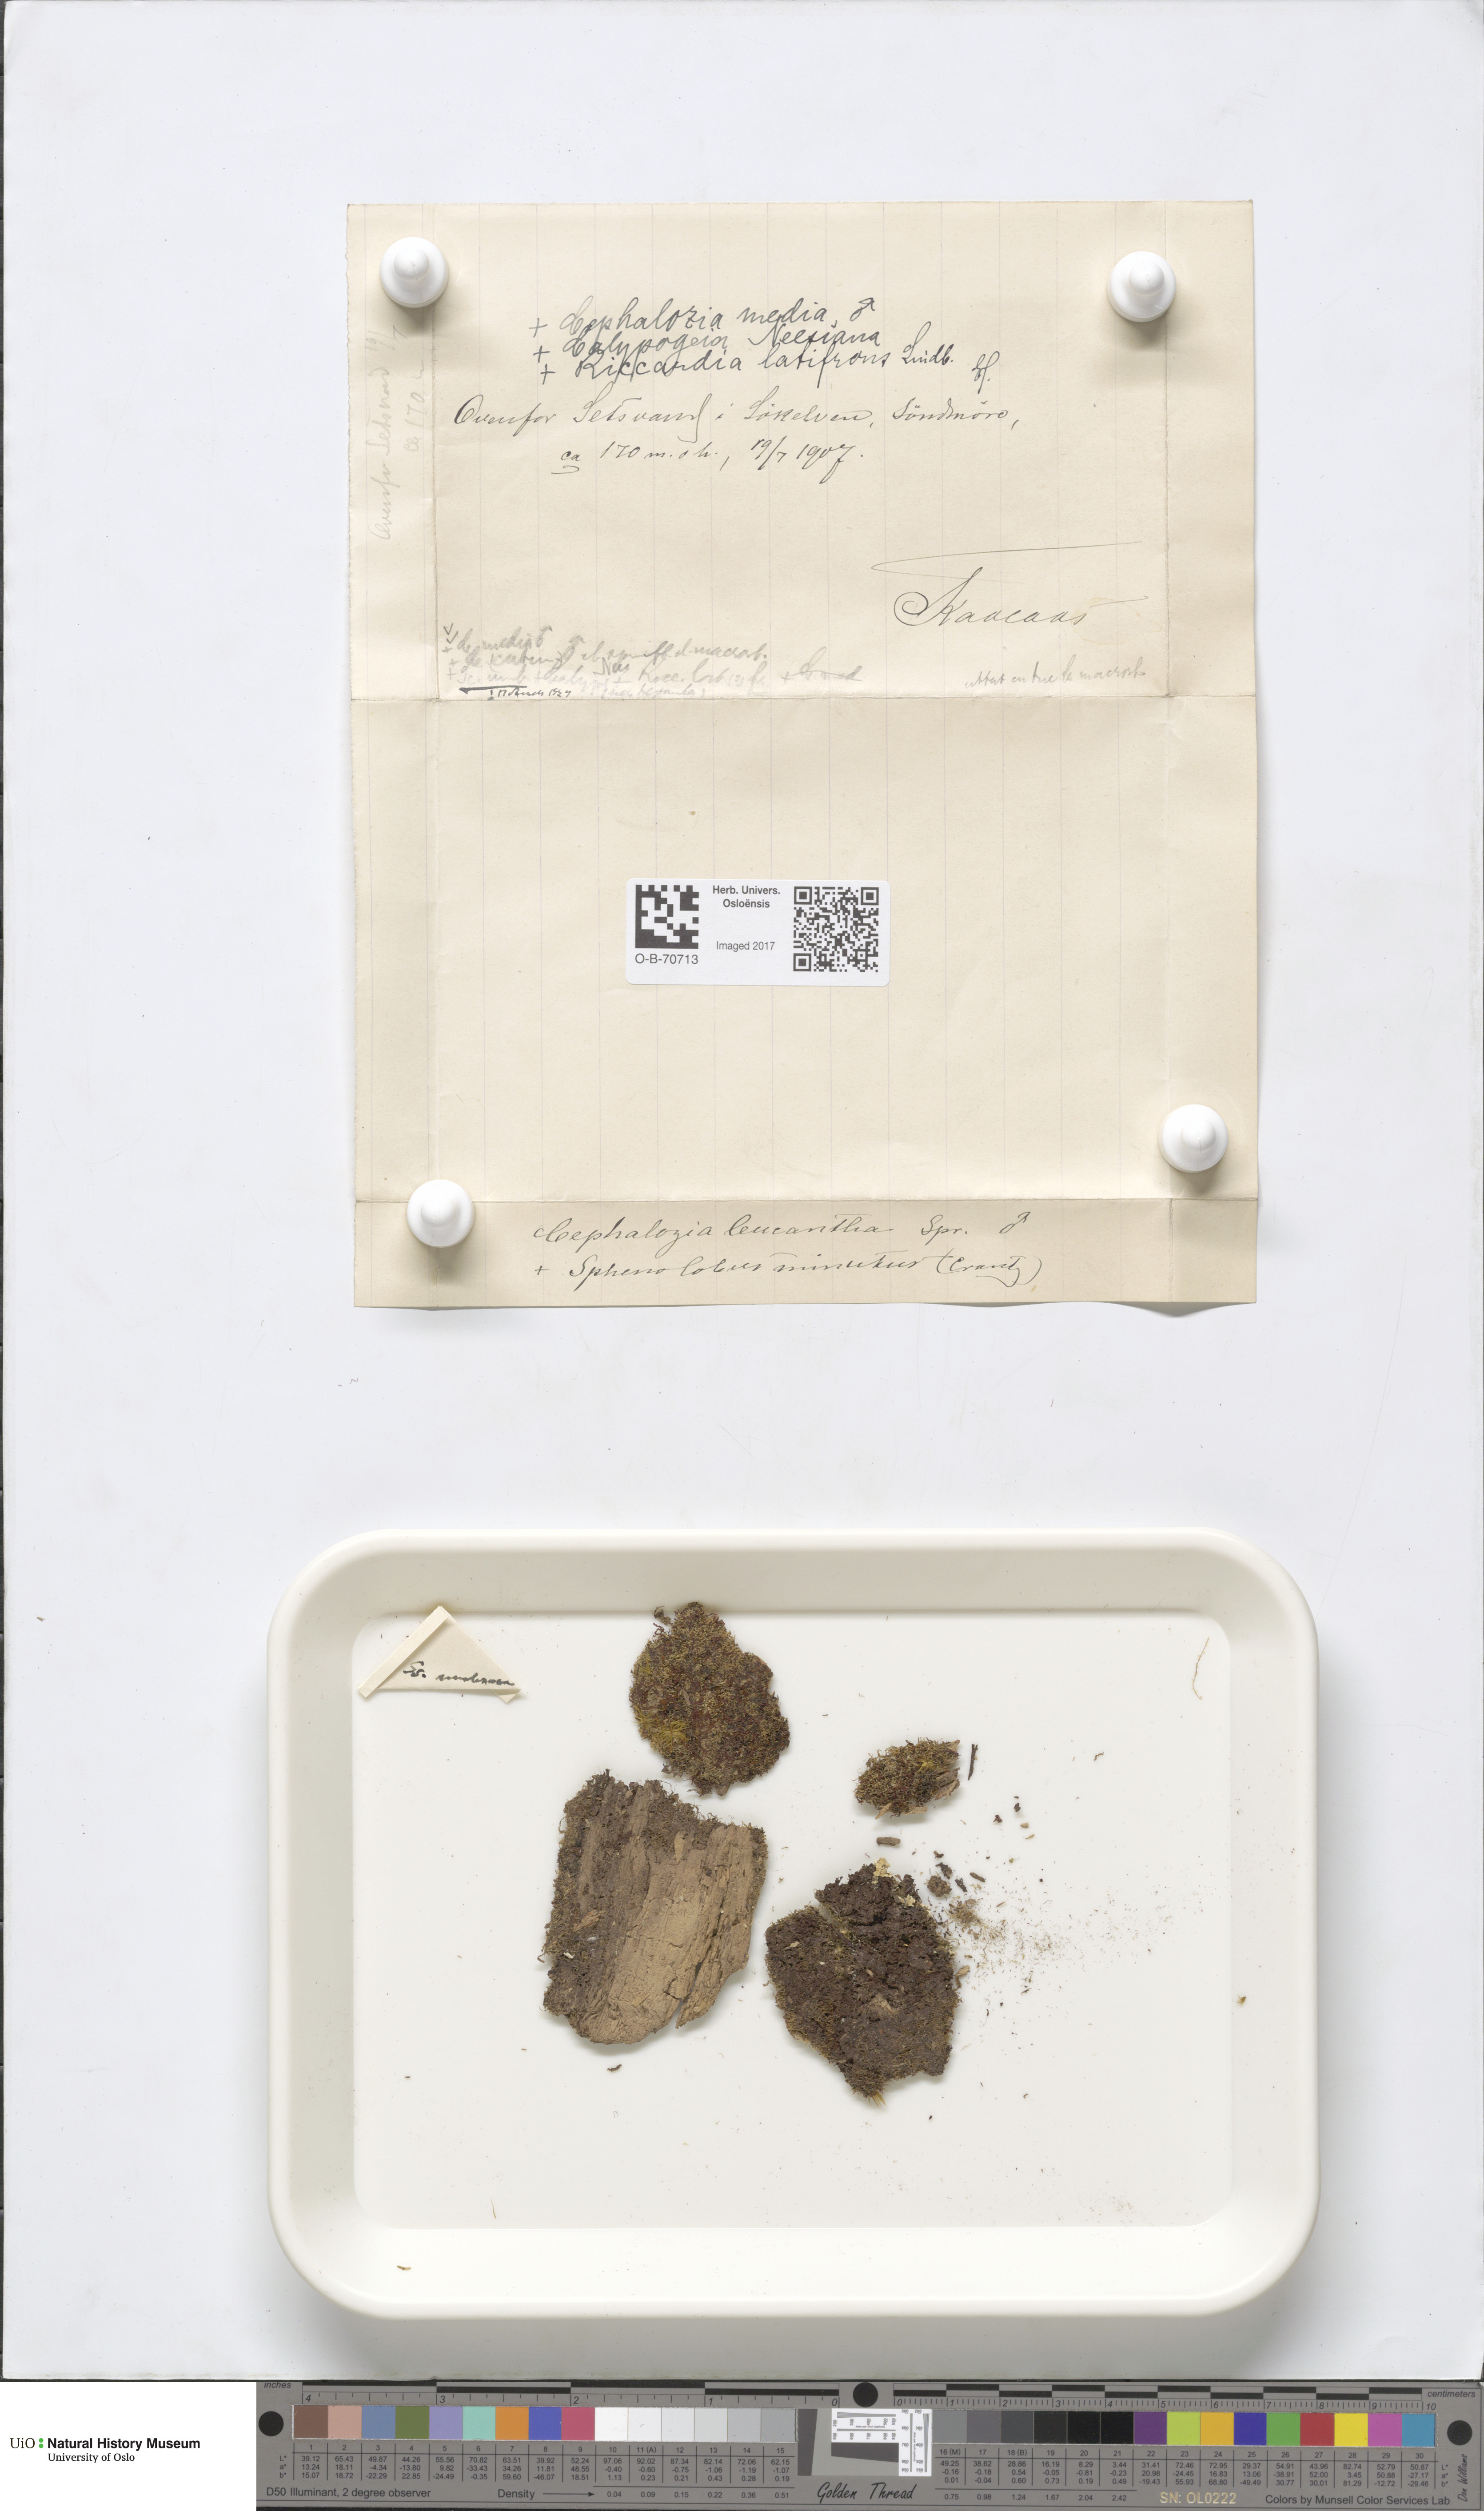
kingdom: Plantae
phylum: Marchantiophyta
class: Jungermanniopsida
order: Jungermanniales
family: Cephaloziaceae
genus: Fuscocephaloziopsis
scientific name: Fuscocephaloziopsis leucantha
